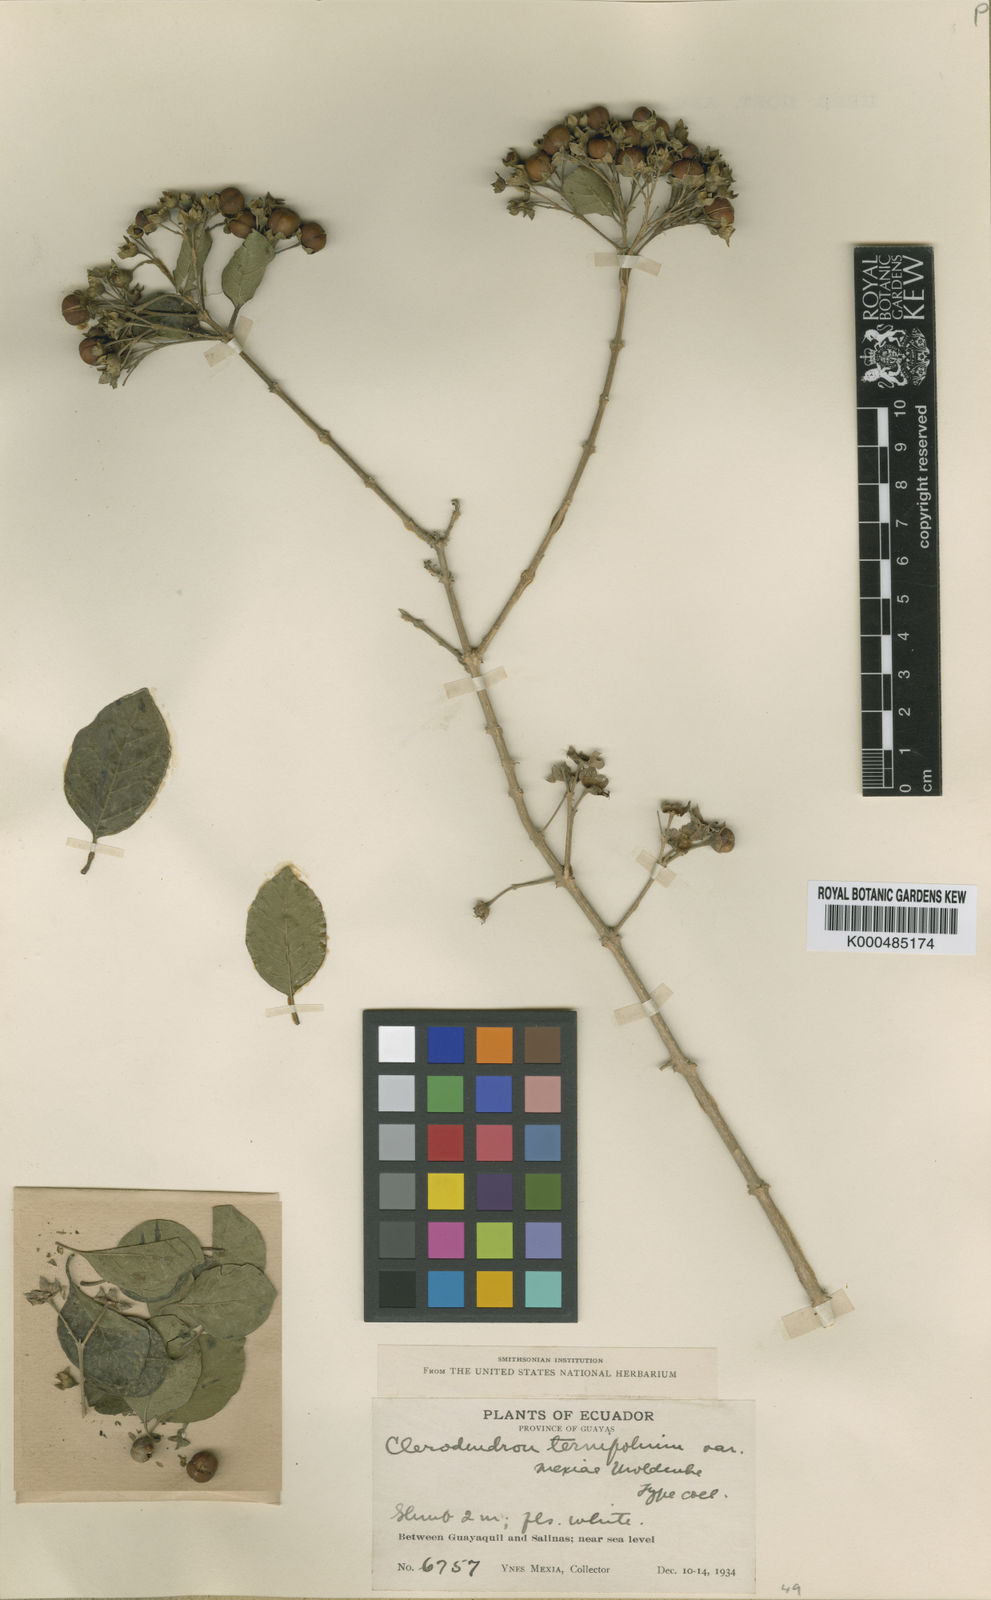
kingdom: Plantae
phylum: Tracheophyta
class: Magnoliopsida
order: Lamiales
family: Lamiaceae
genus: Volkameria
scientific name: Volkameria aculeata
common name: Prickly myrtle
